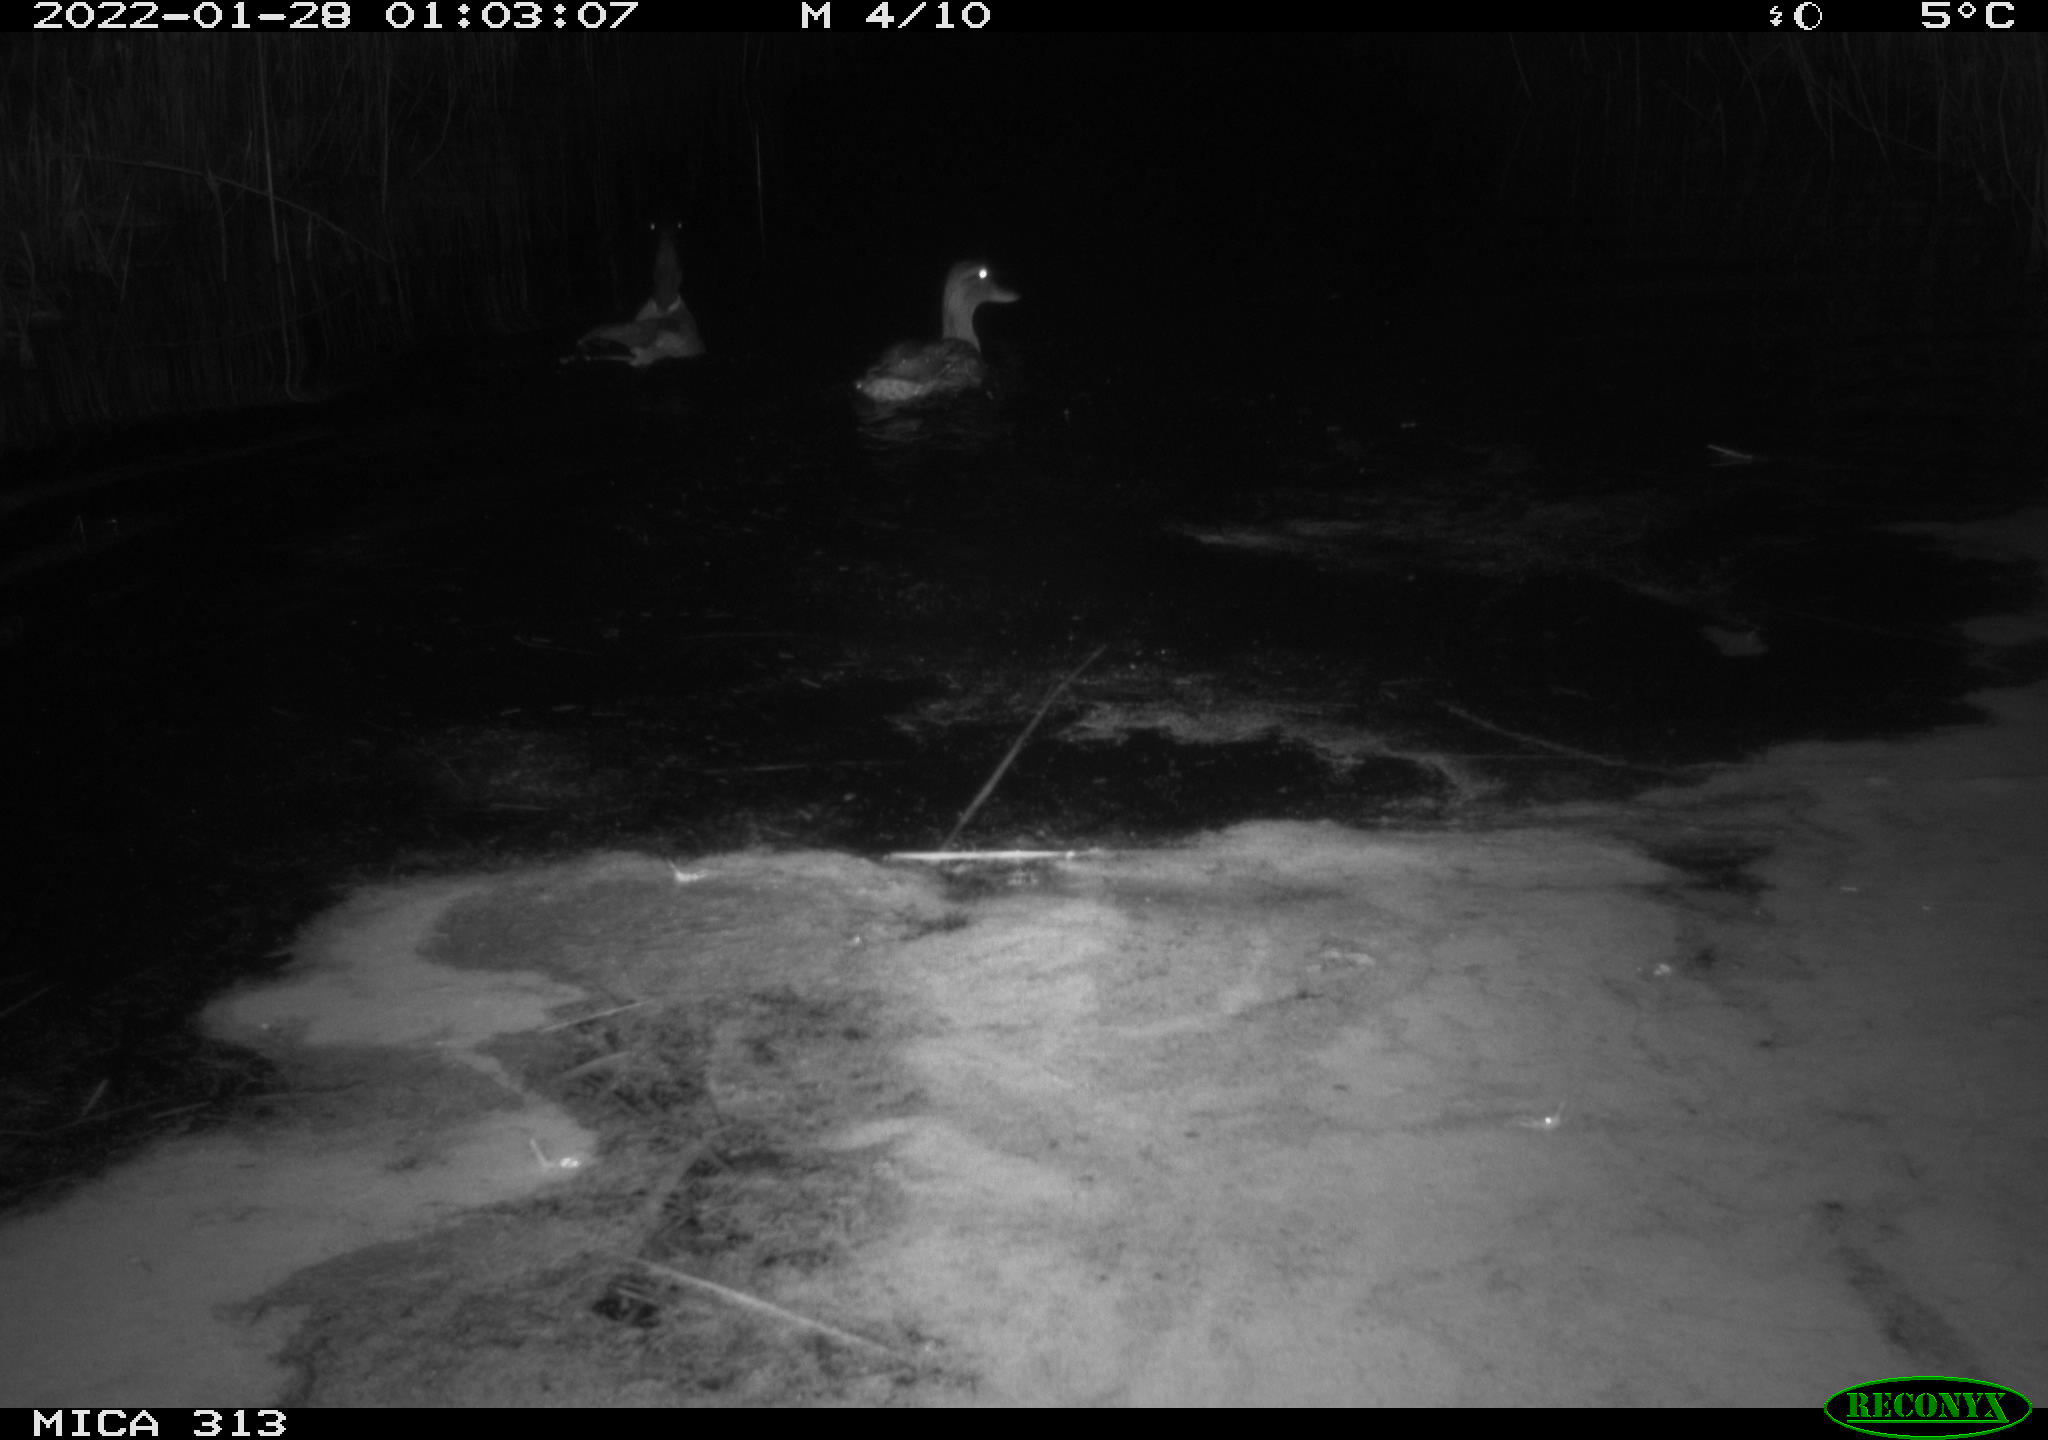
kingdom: Animalia
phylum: Chordata
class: Aves
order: Anseriformes
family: Anatidae
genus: Anas
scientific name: Anas
